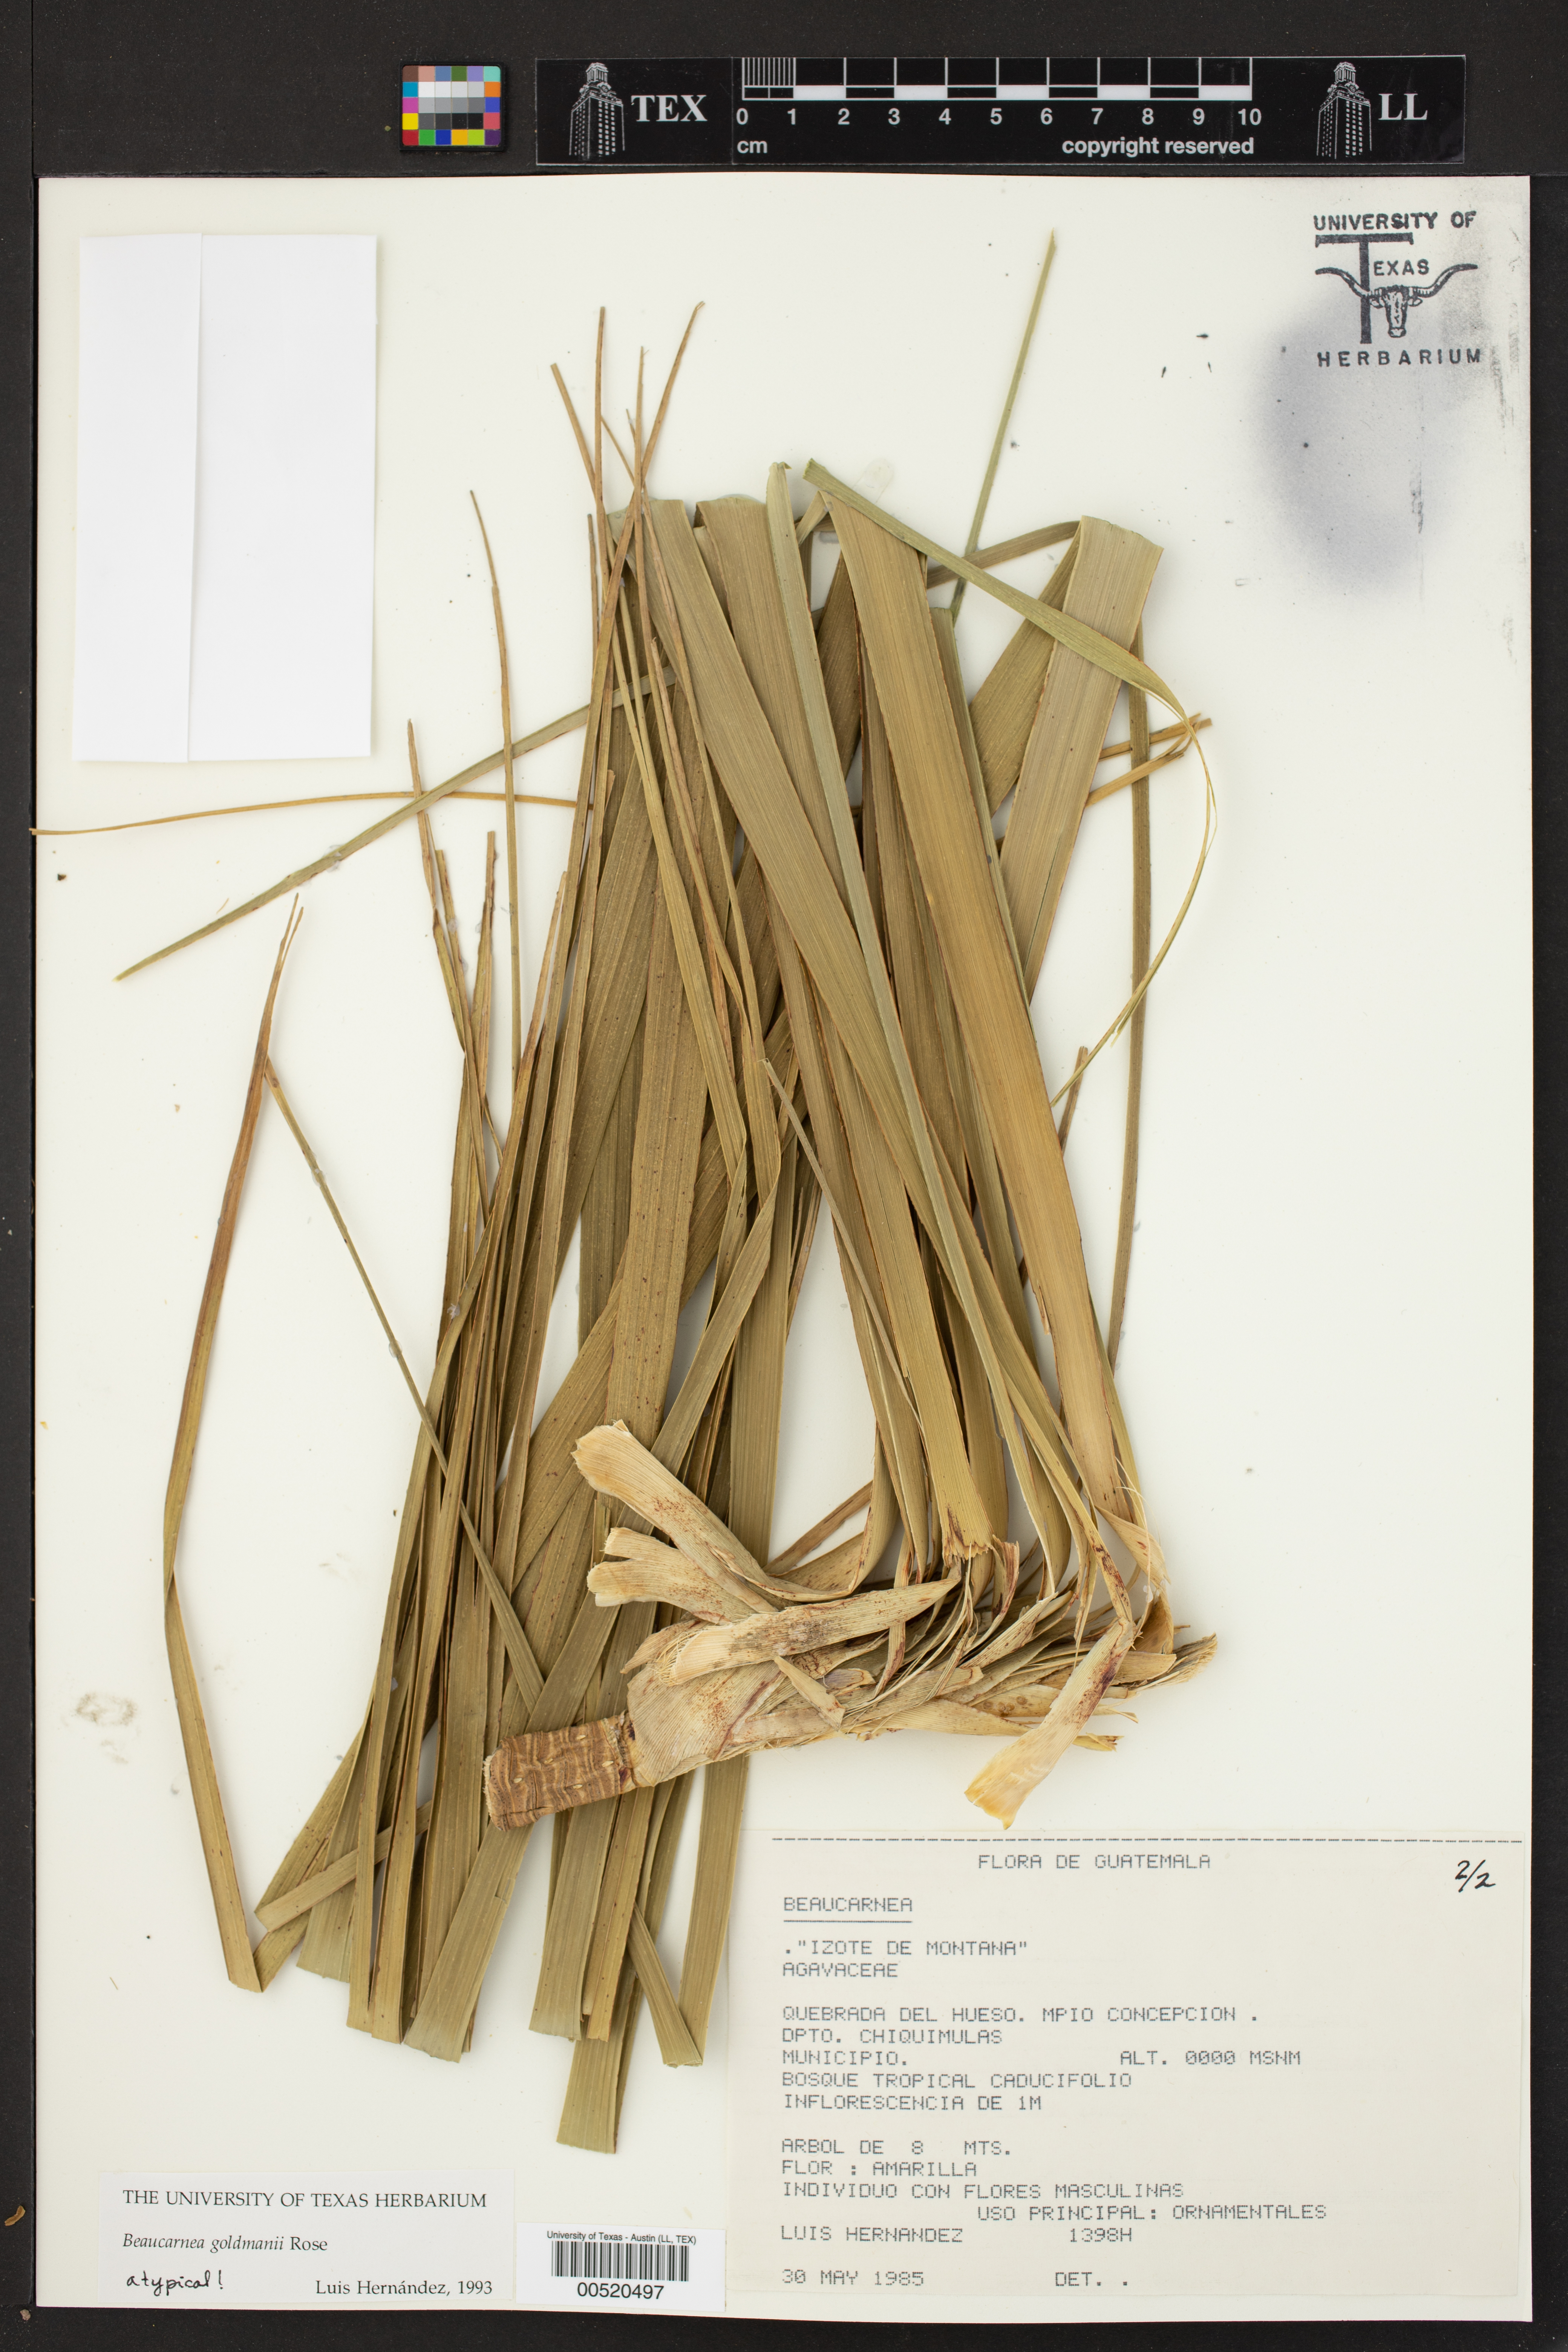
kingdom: Plantae
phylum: Tracheophyta
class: Liliopsida
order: Asparagales
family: Asparagaceae
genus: Beaucarnea
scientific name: Beaucarnea
